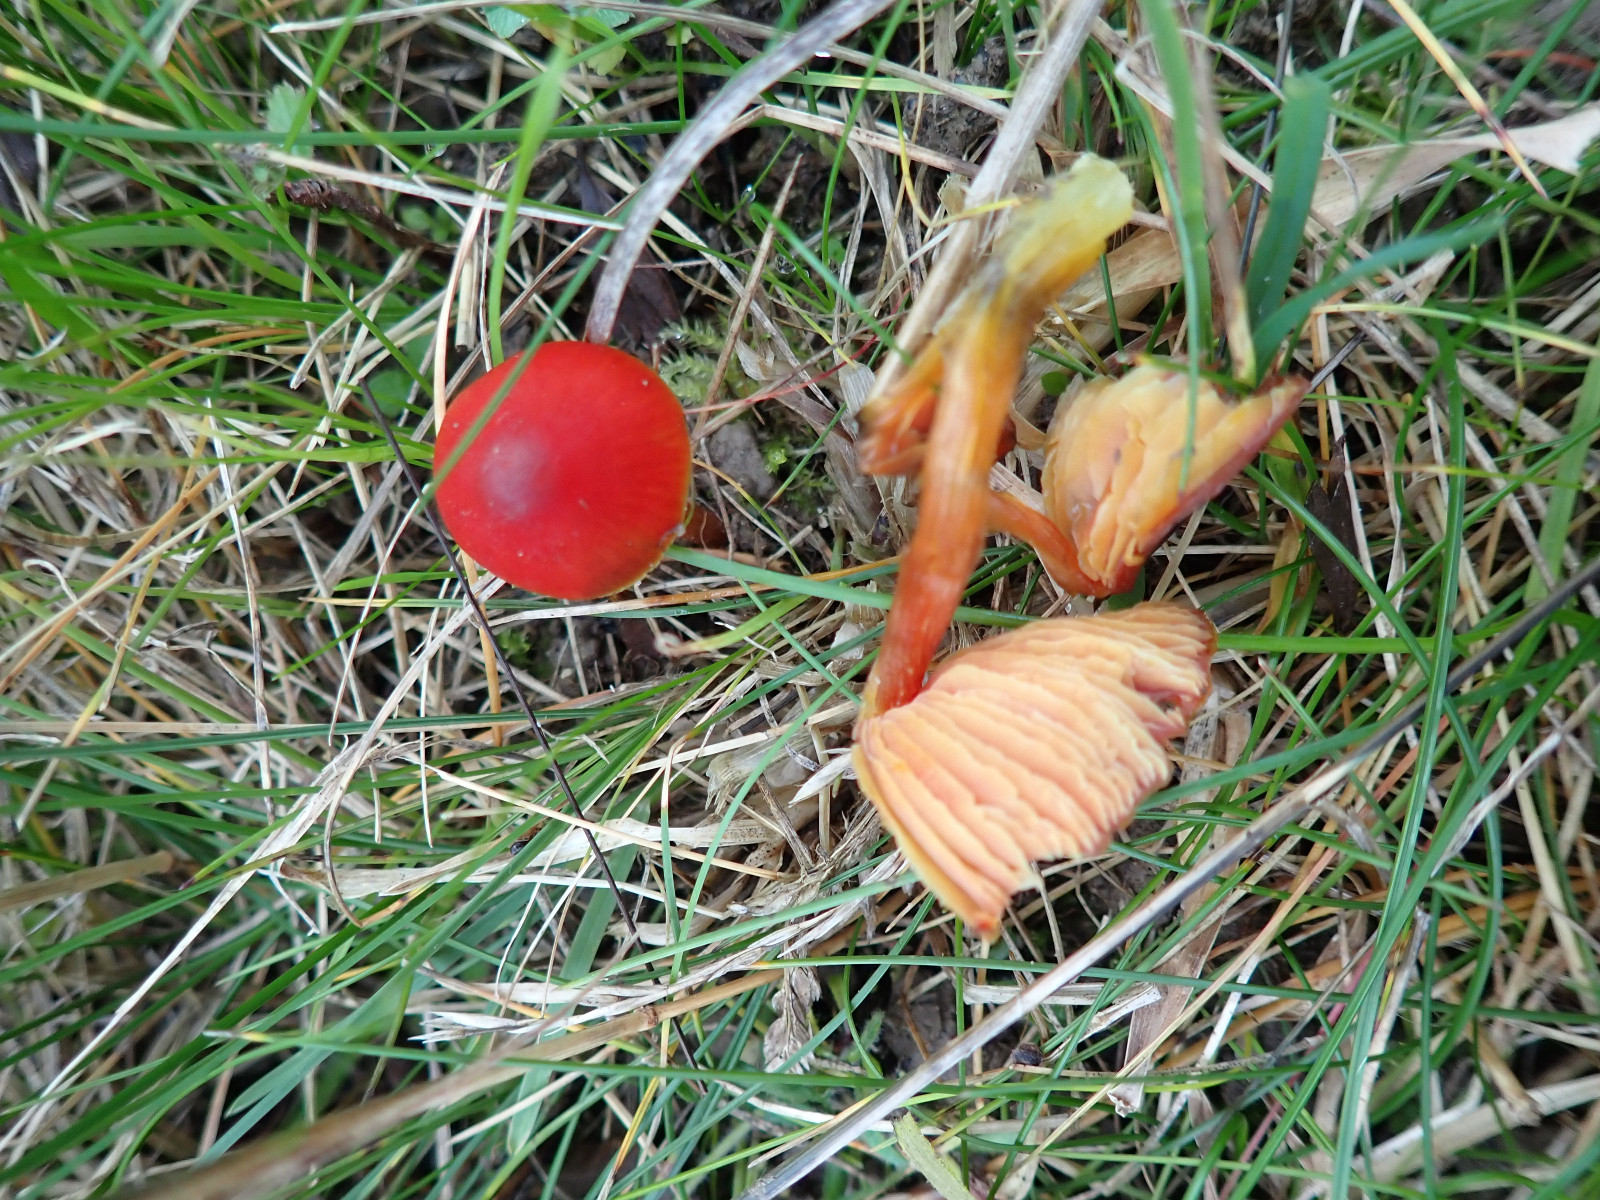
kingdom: Fungi
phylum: Basidiomycota
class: Agaricomycetes
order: Agaricales
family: Hygrophoraceae
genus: Hygrocybe
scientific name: Hygrocybe conica
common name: kegle-vokshat
